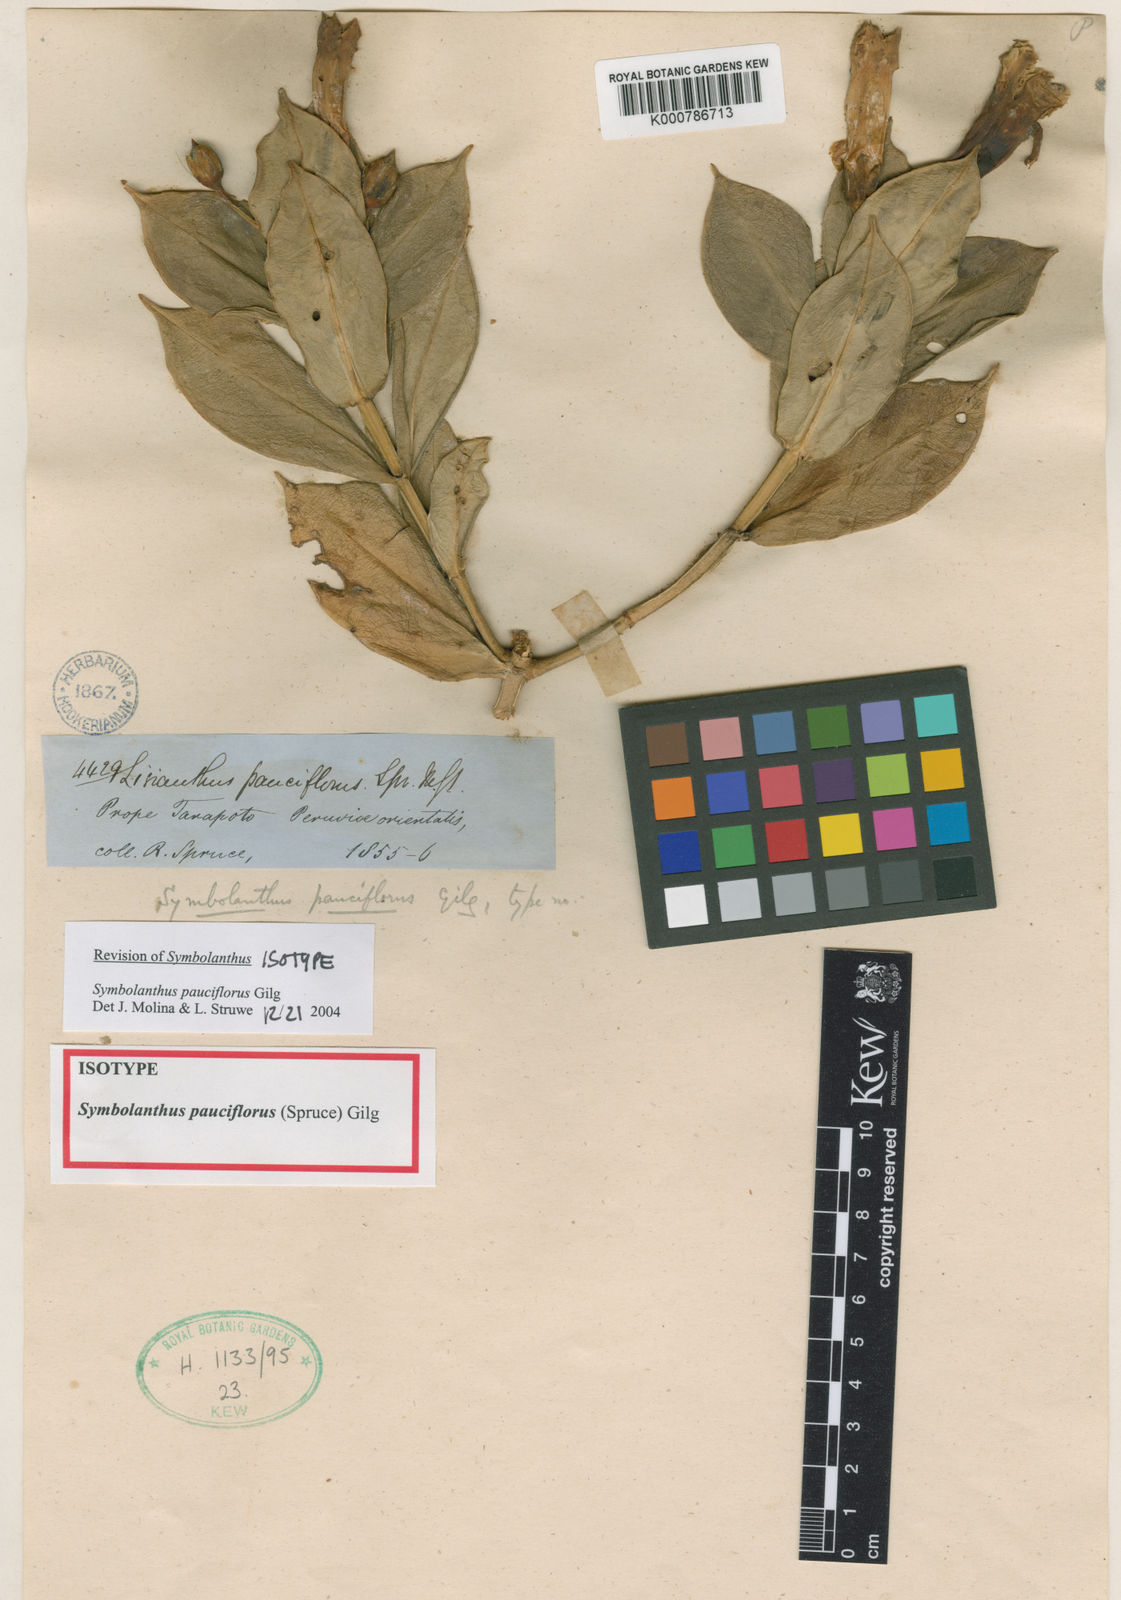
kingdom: Plantae
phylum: Tracheophyta
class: Magnoliopsida
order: Gentianales
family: Gentianaceae
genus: Symbolanthus
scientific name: Symbolanthus pauciflorus
